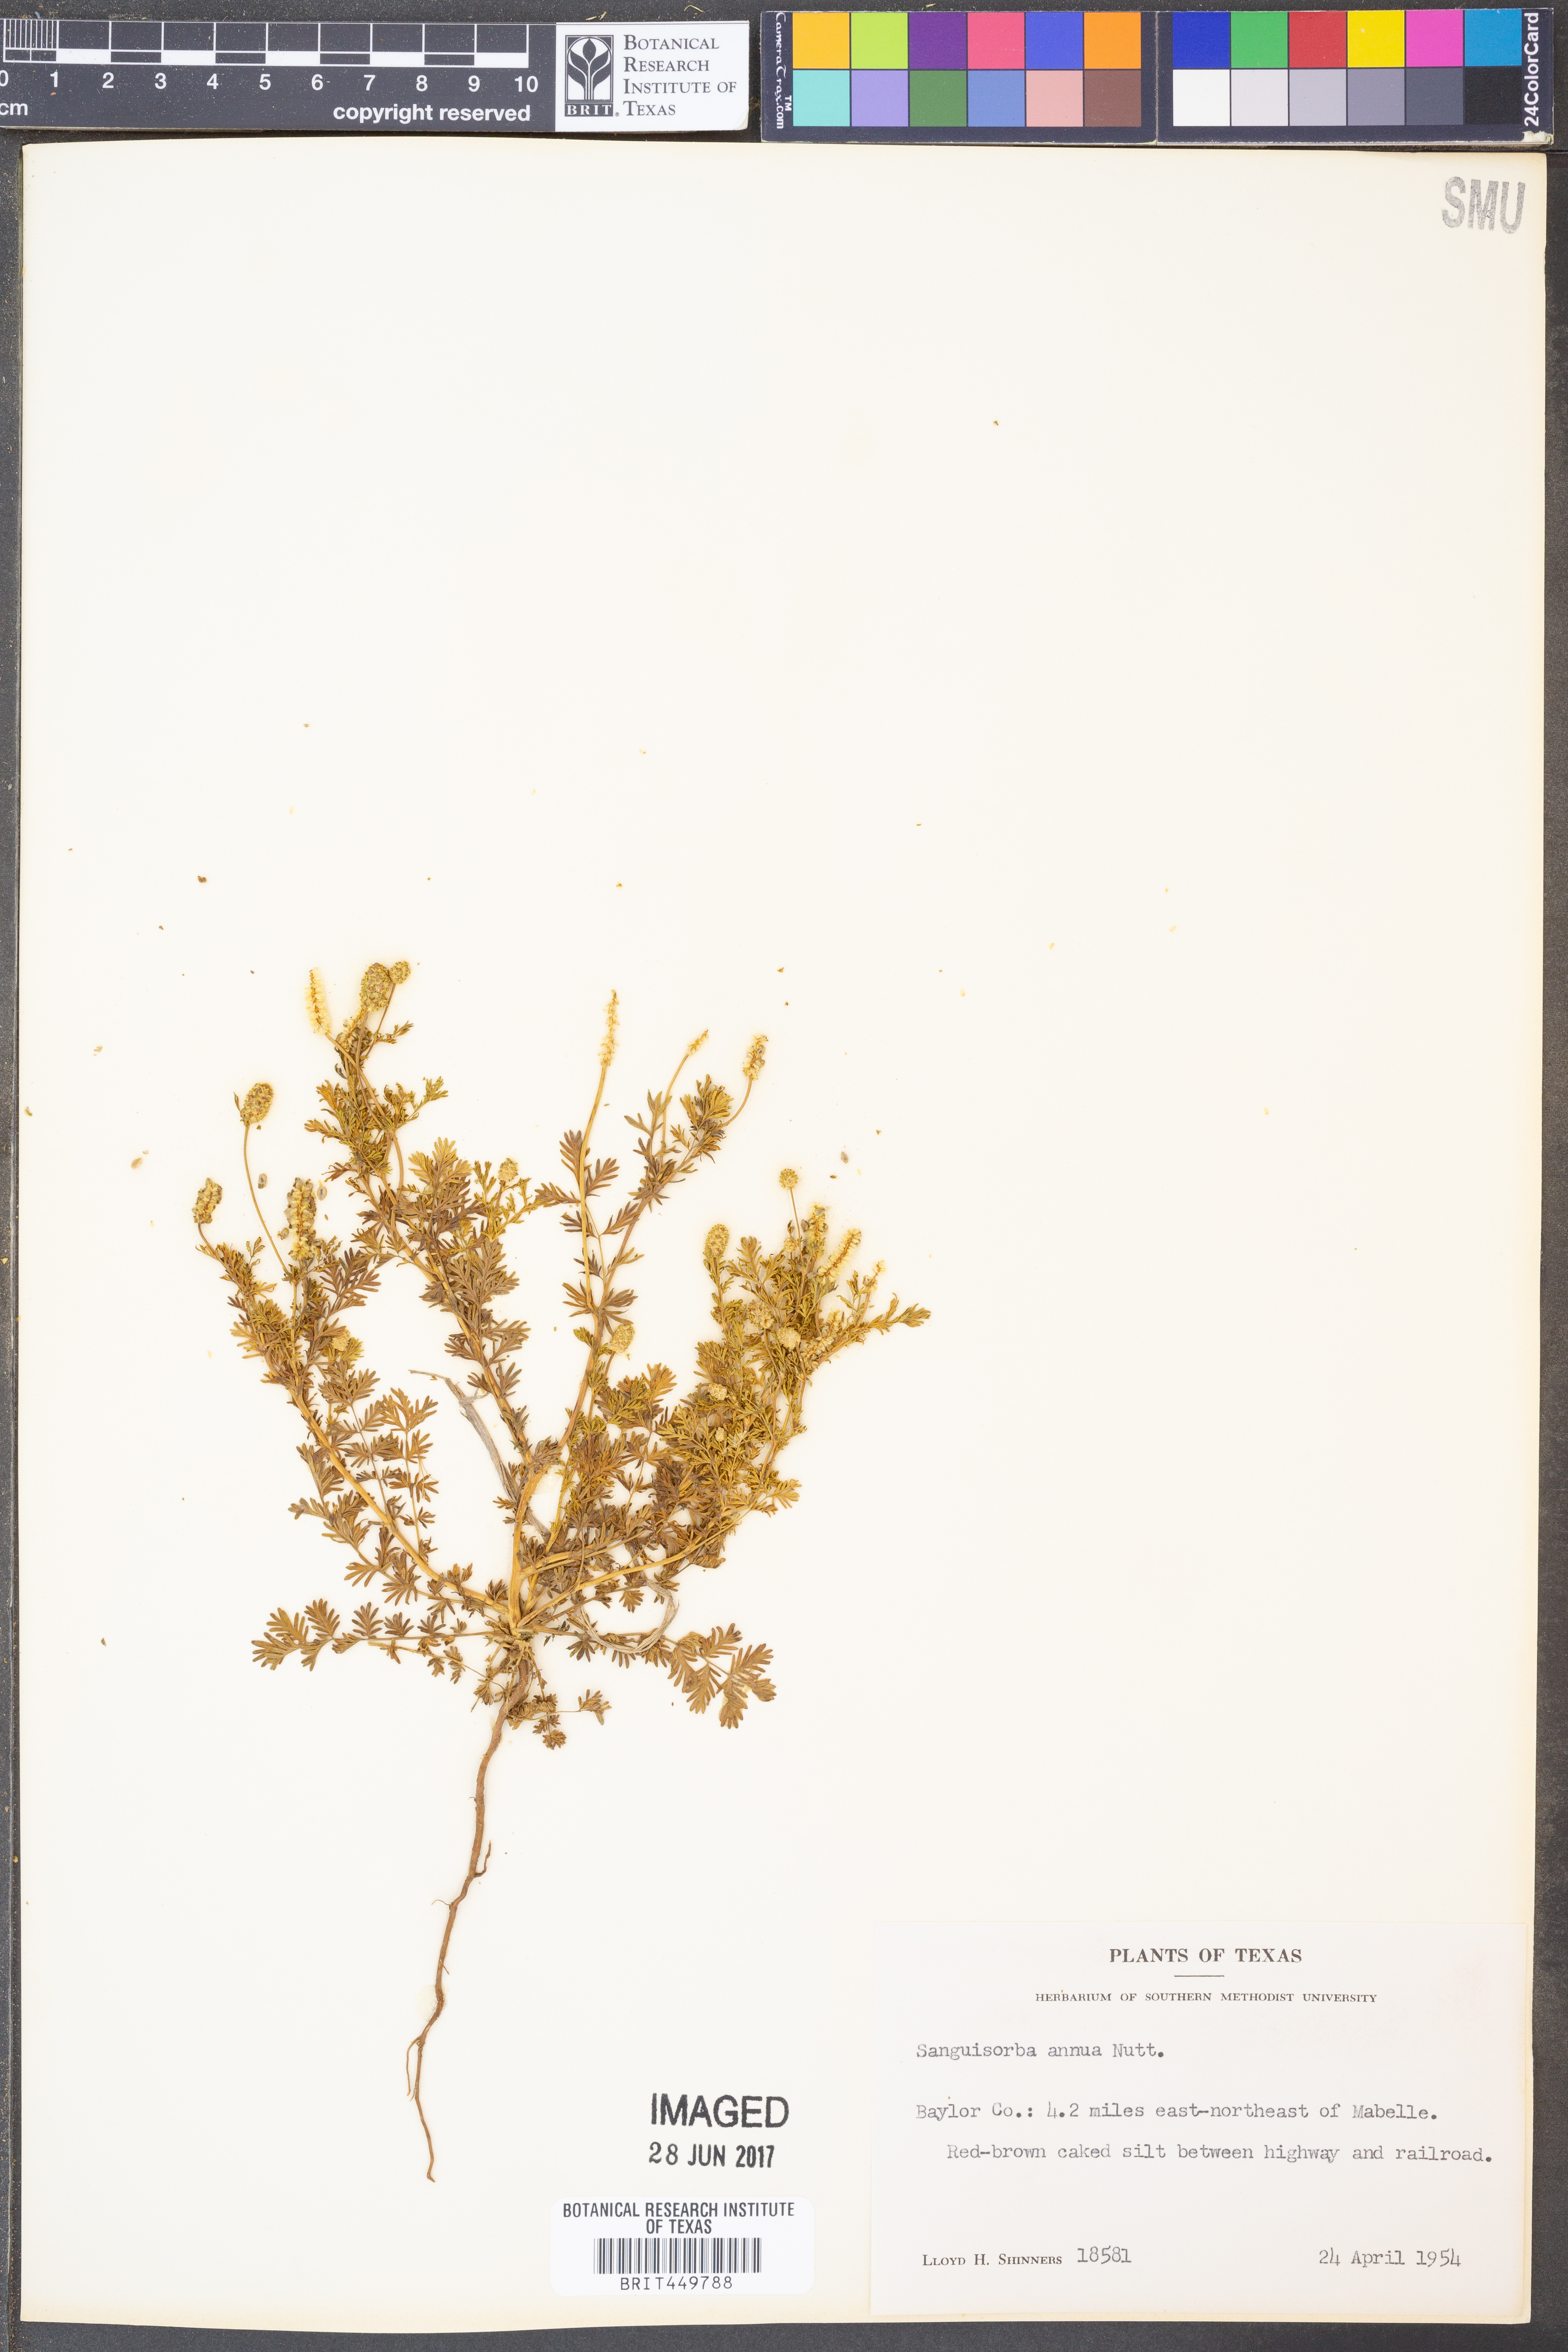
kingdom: Plantae
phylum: Tracheophyta
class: Magnoliopsida
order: Rosales
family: Rosaceae
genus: Poteridium
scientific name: Poteridium annuum
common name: Annual burnet
